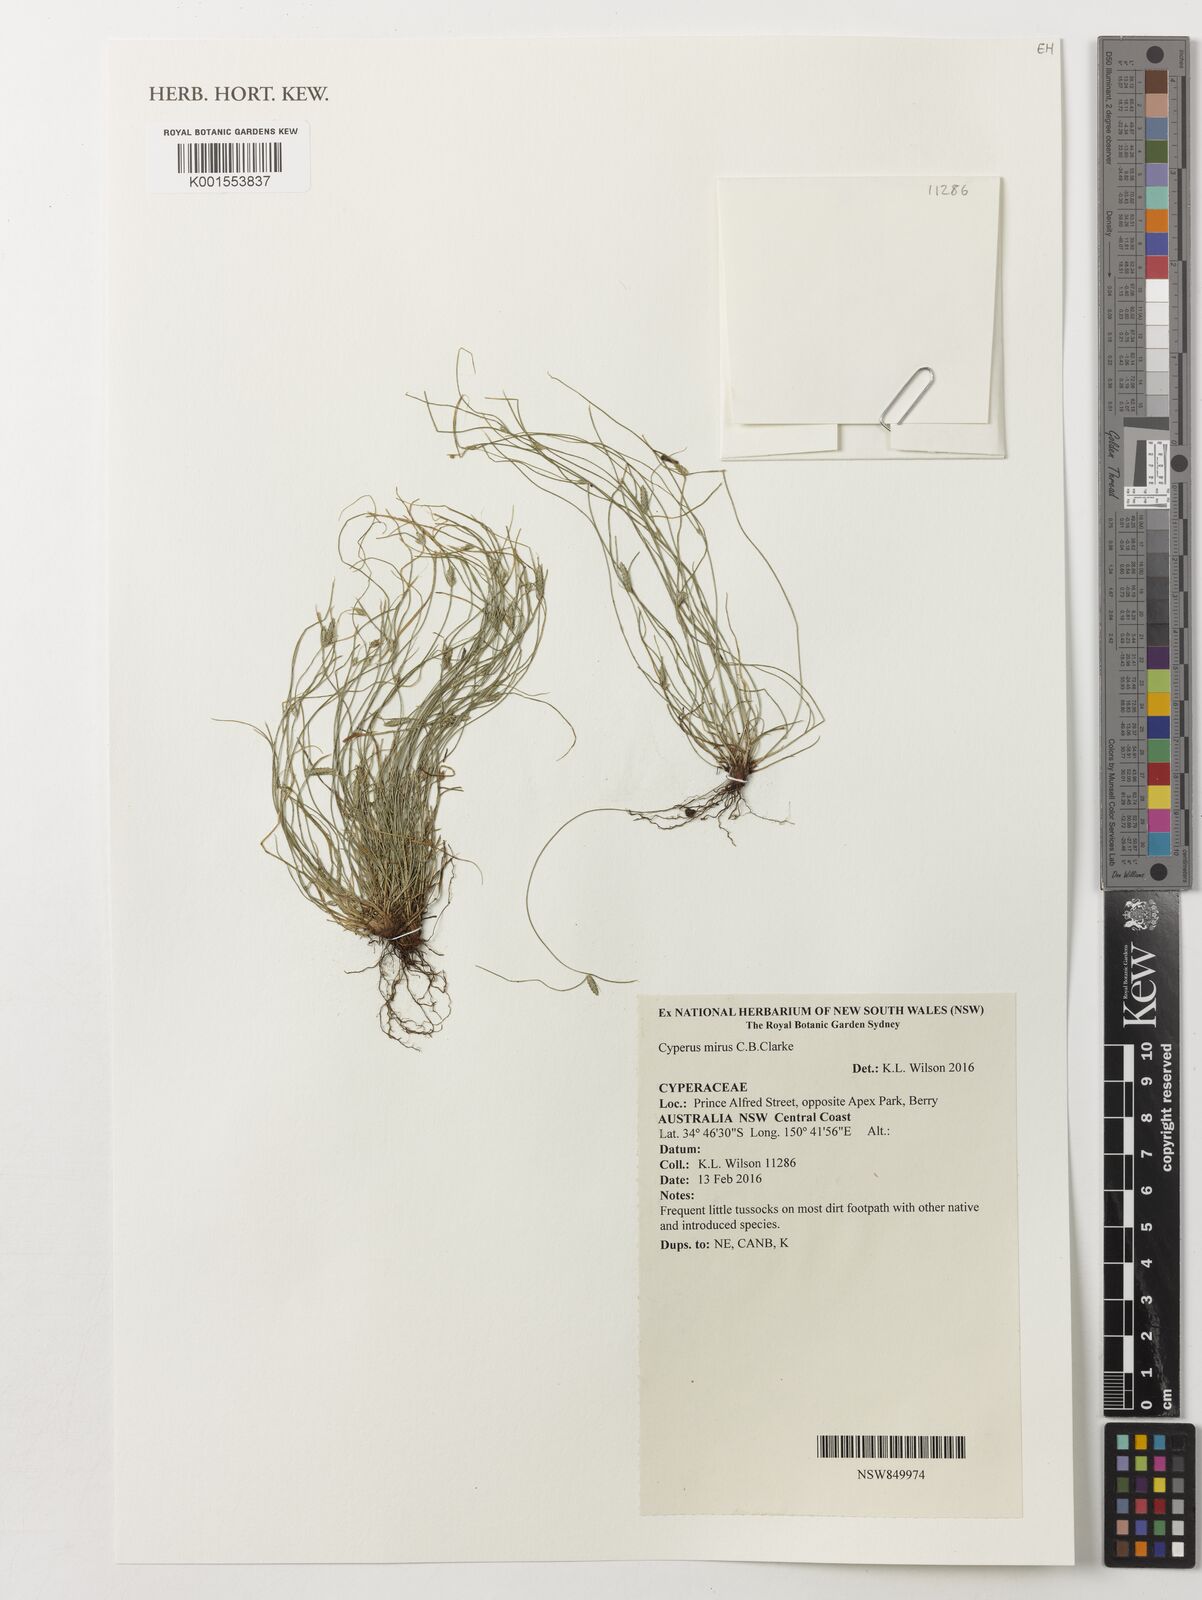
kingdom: Plantae
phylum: Tracheophyta
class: Liliopsida
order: Poales
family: Cyperaceae
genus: Cyperus
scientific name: Cyperus mirus
